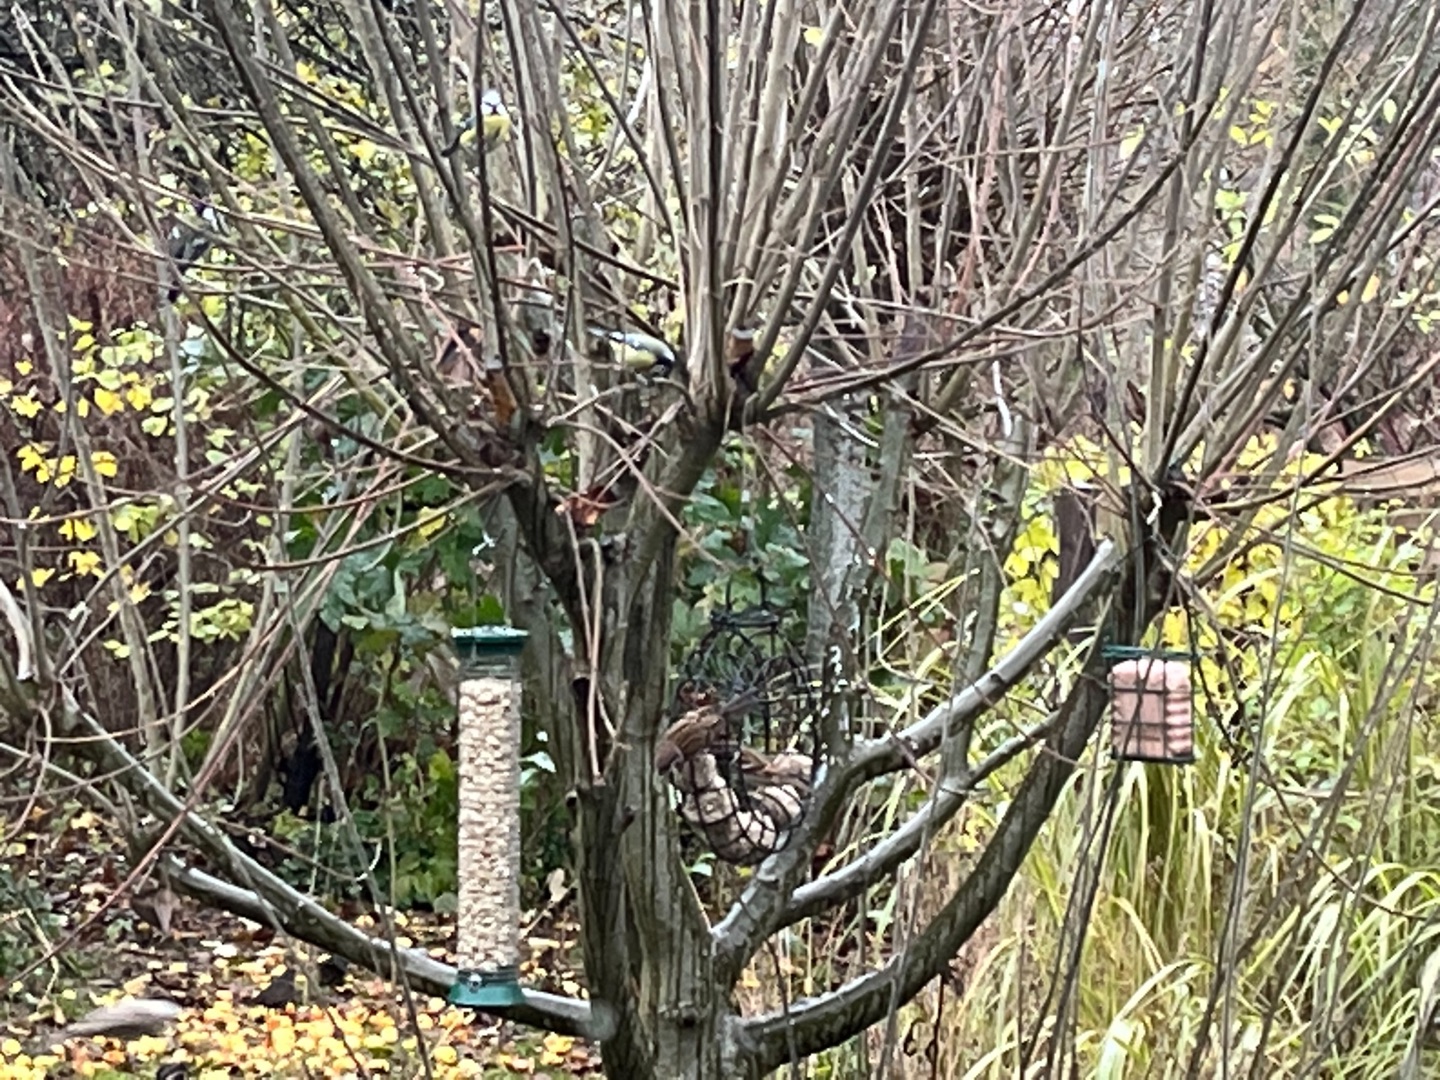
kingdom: Animalia
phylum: Chordata
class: Aves
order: Passeriformes
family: Passeridae
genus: Passer
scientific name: Passer montanus
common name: Skovspurv
